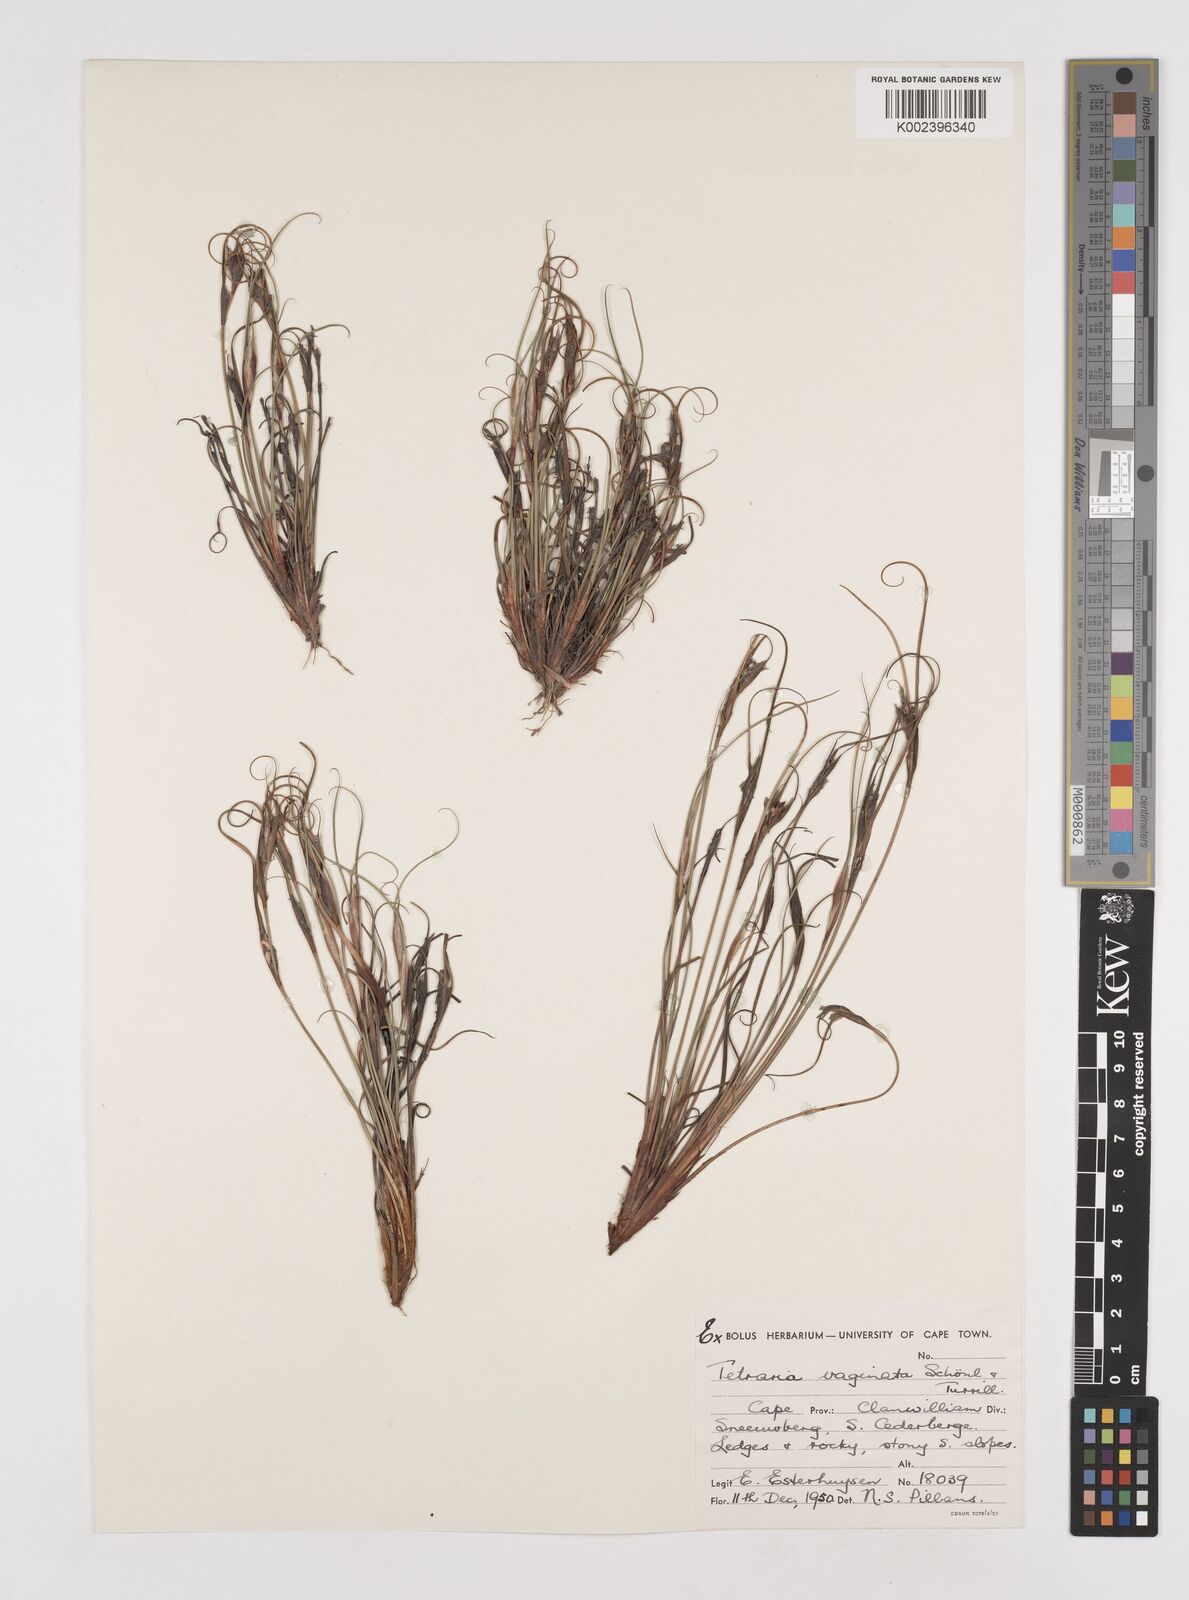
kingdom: Plantae
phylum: Tracheophyta
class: Liliopsida
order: Poales
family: Cyperaceae
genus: Tetraria
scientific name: Tetraria vaginata
